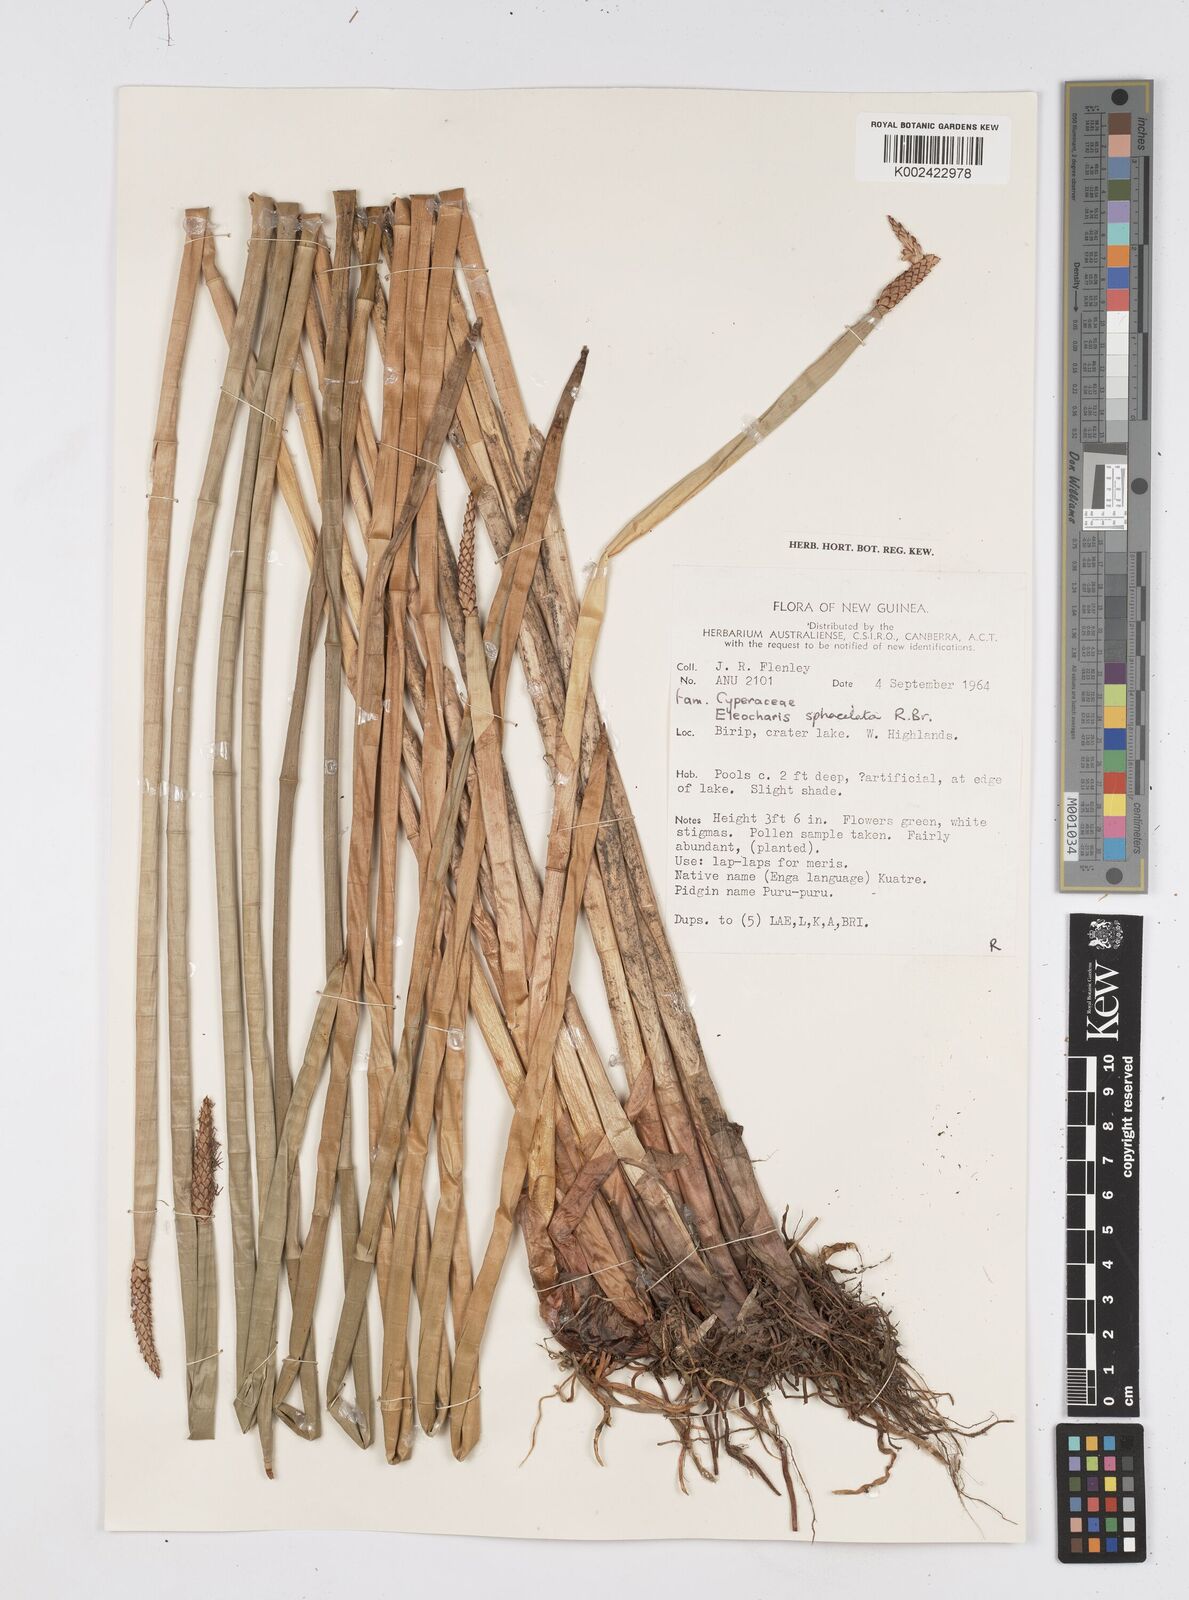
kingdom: Plantae
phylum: Tracheophyta
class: Liliopsida
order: Poales
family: Cyperaceae
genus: Eleocharis
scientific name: Eleocharis sphacelata
